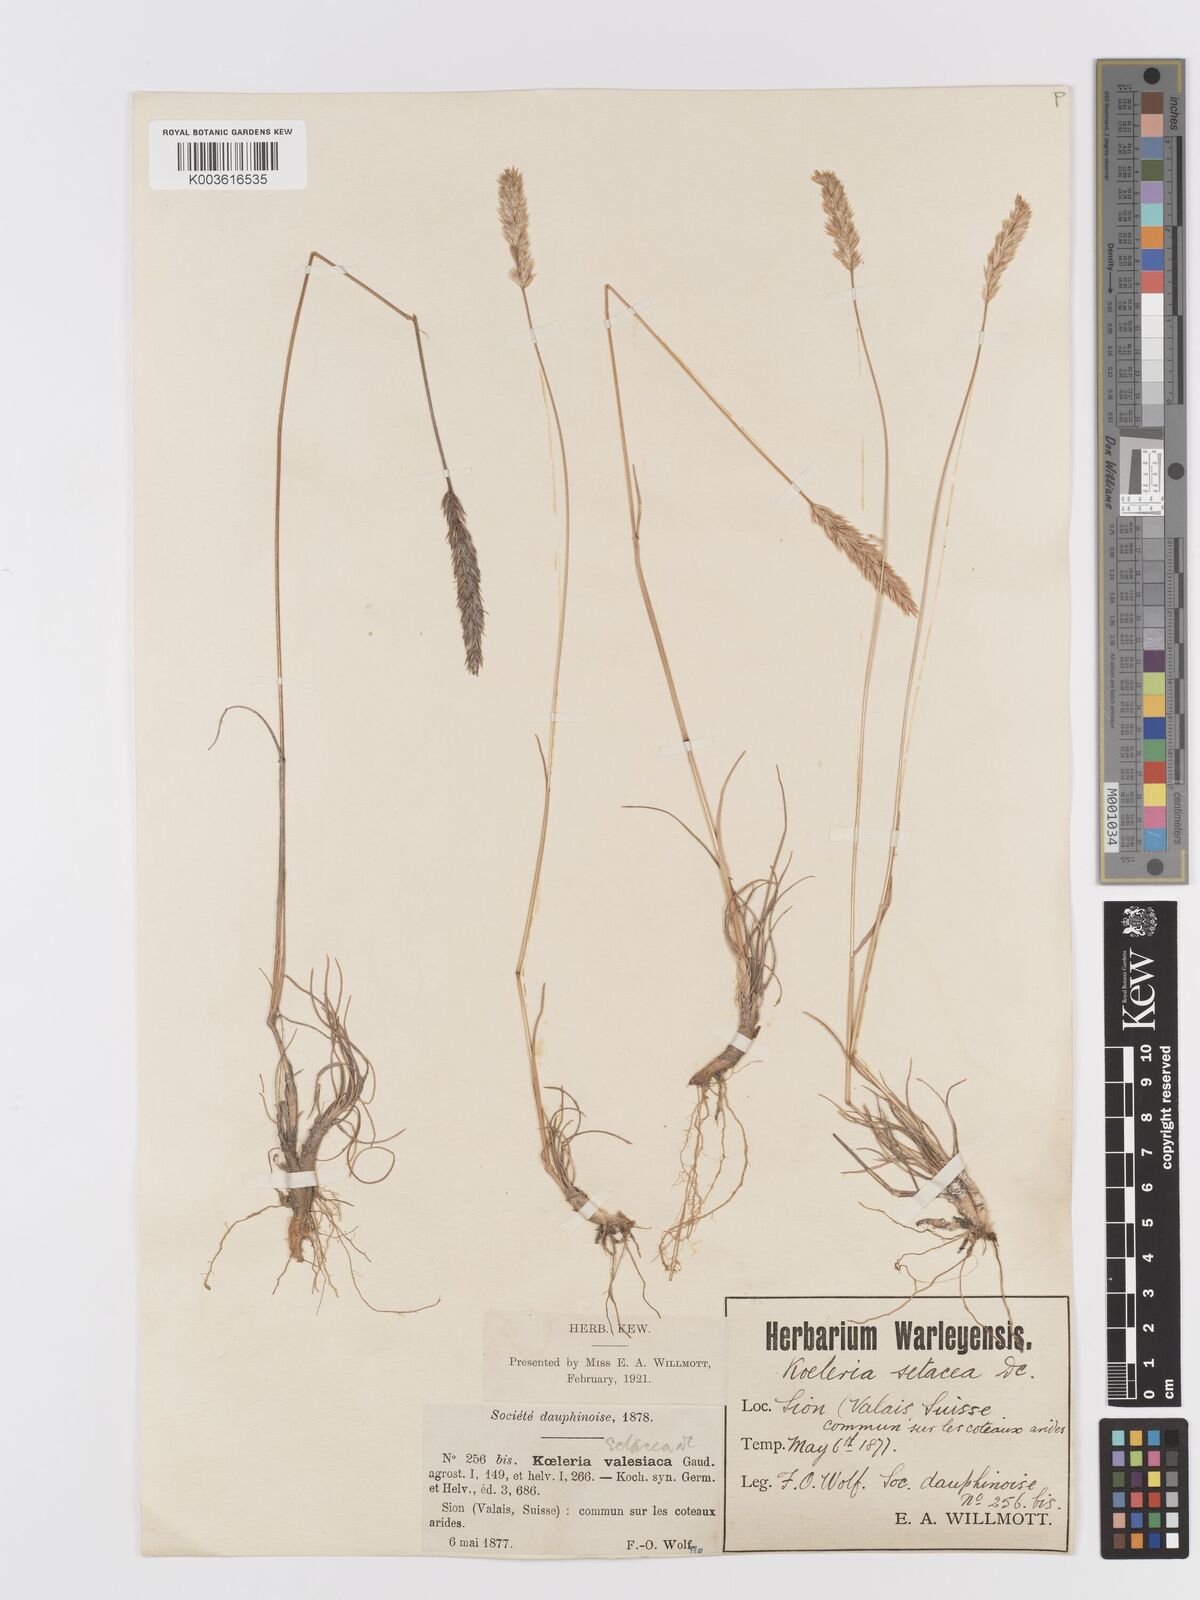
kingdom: Plantae
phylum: Tracheophyta
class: Liliopsida
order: Poales
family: Poaceae
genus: Koeleria
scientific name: Koeleria vallesiana
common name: Somerset hair-grass
